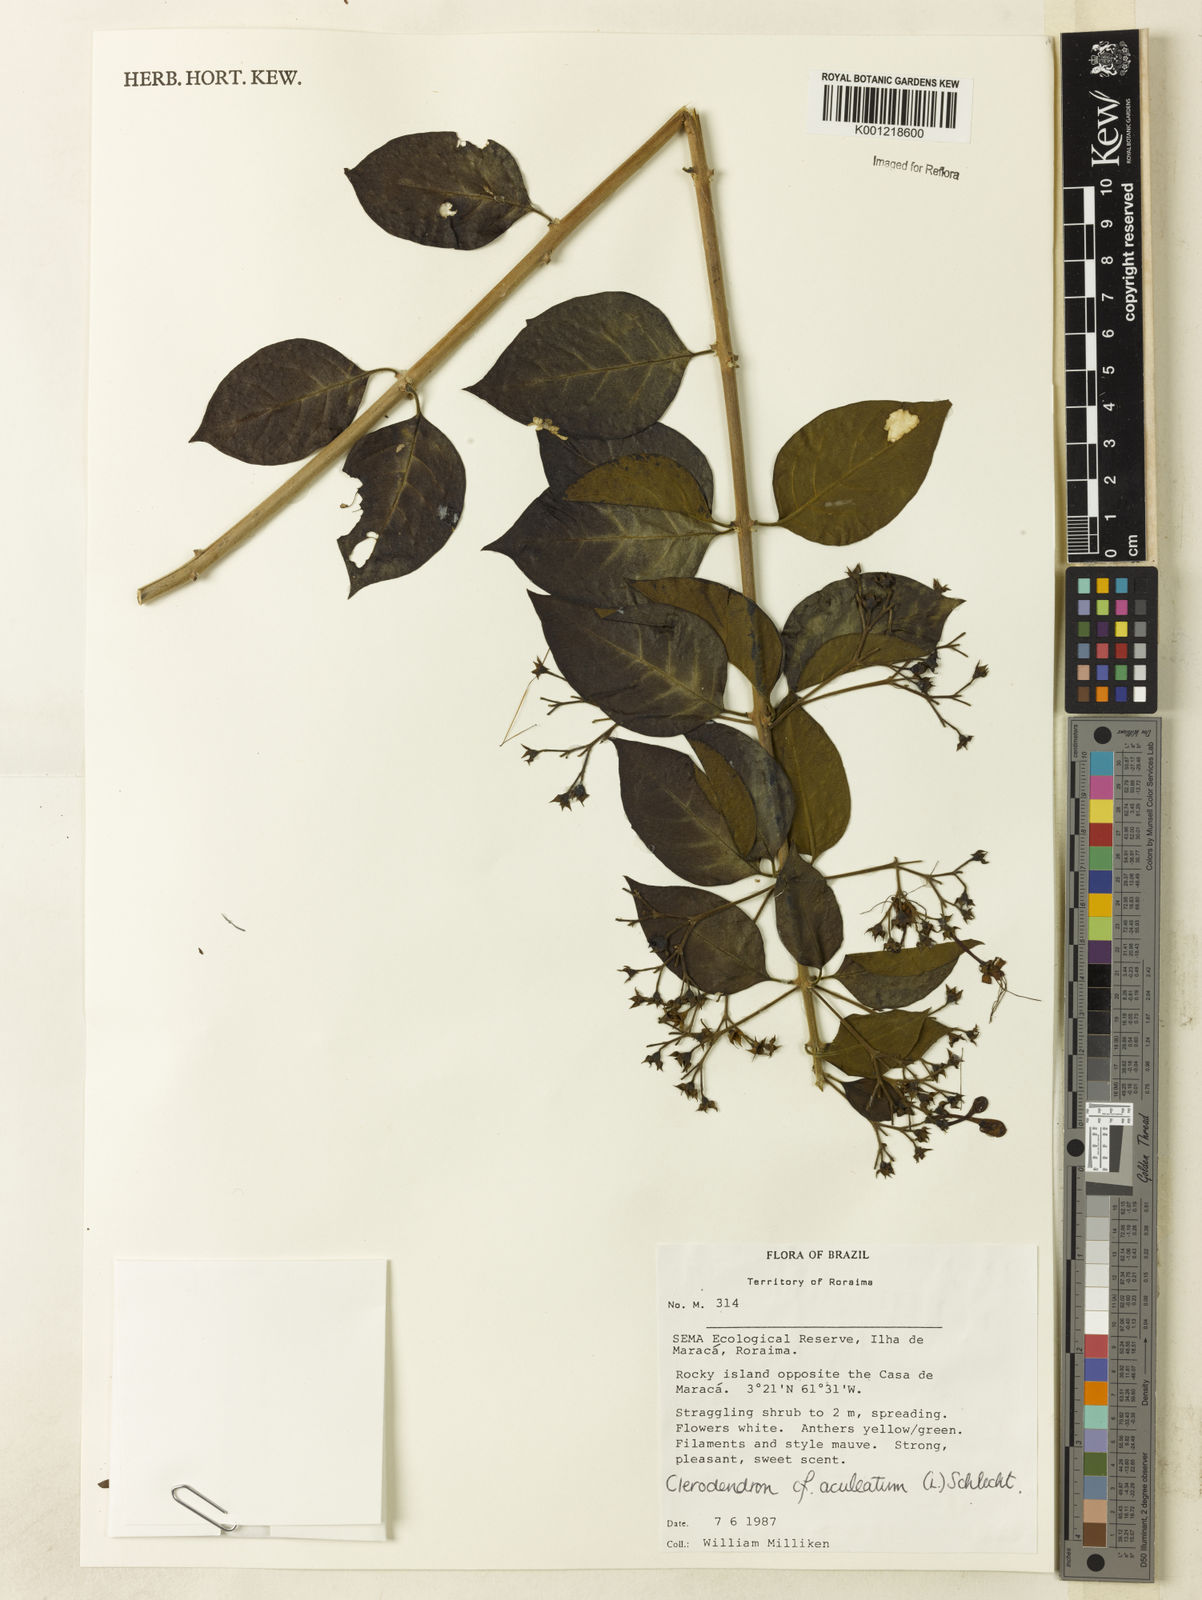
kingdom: Plantae
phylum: Tracheophyta
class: Magnoliopsida
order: Lamiales
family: Lamiaceae
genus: Volkameria
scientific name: Volkameria aculeata
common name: Prickly myrtle
